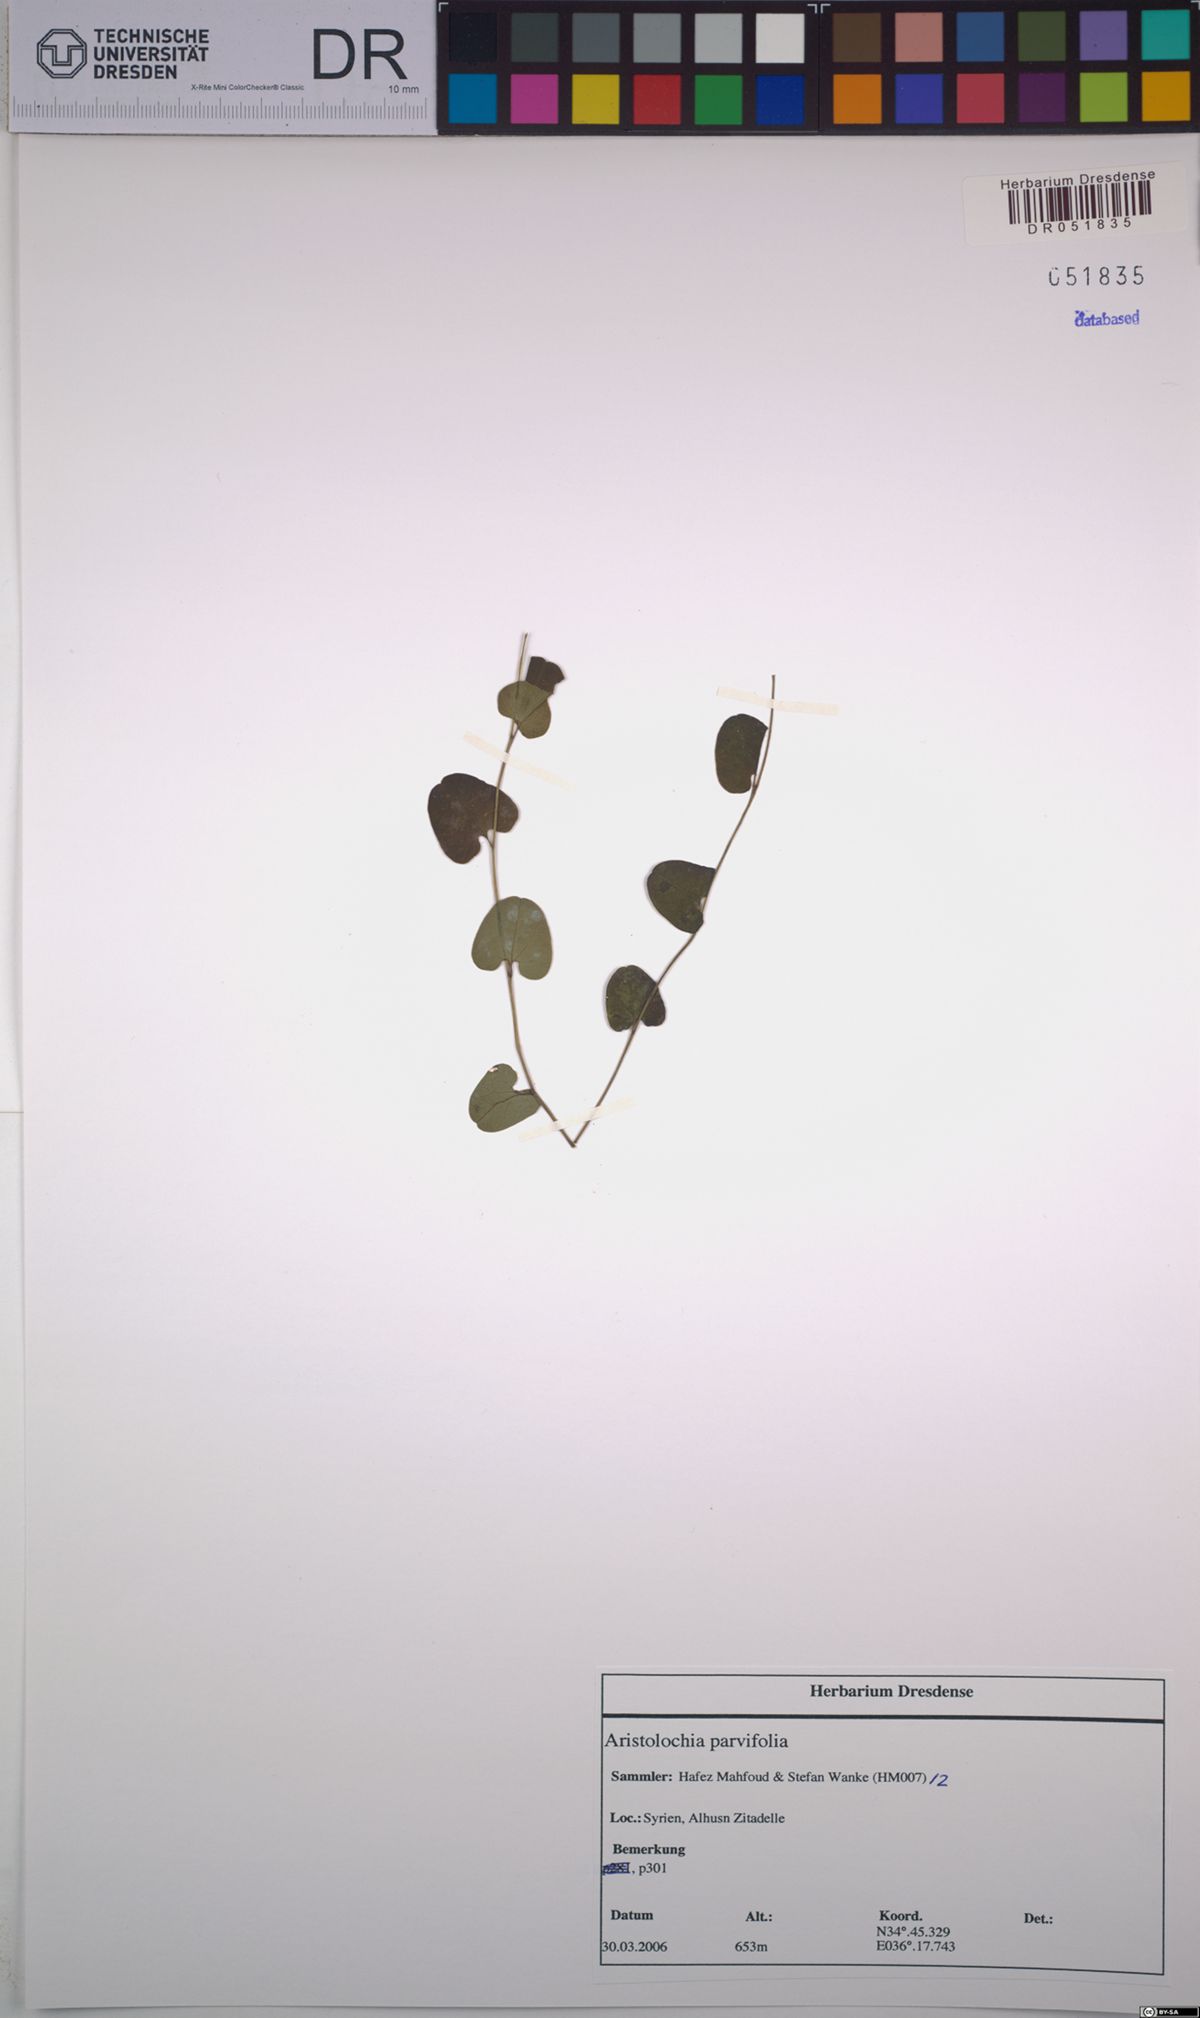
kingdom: Plantae
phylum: Tracheophyta
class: Magnoliopsida
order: Piperales
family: Aristolochiaceae
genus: Aristolochia
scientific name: Aristolochia parvifolia
